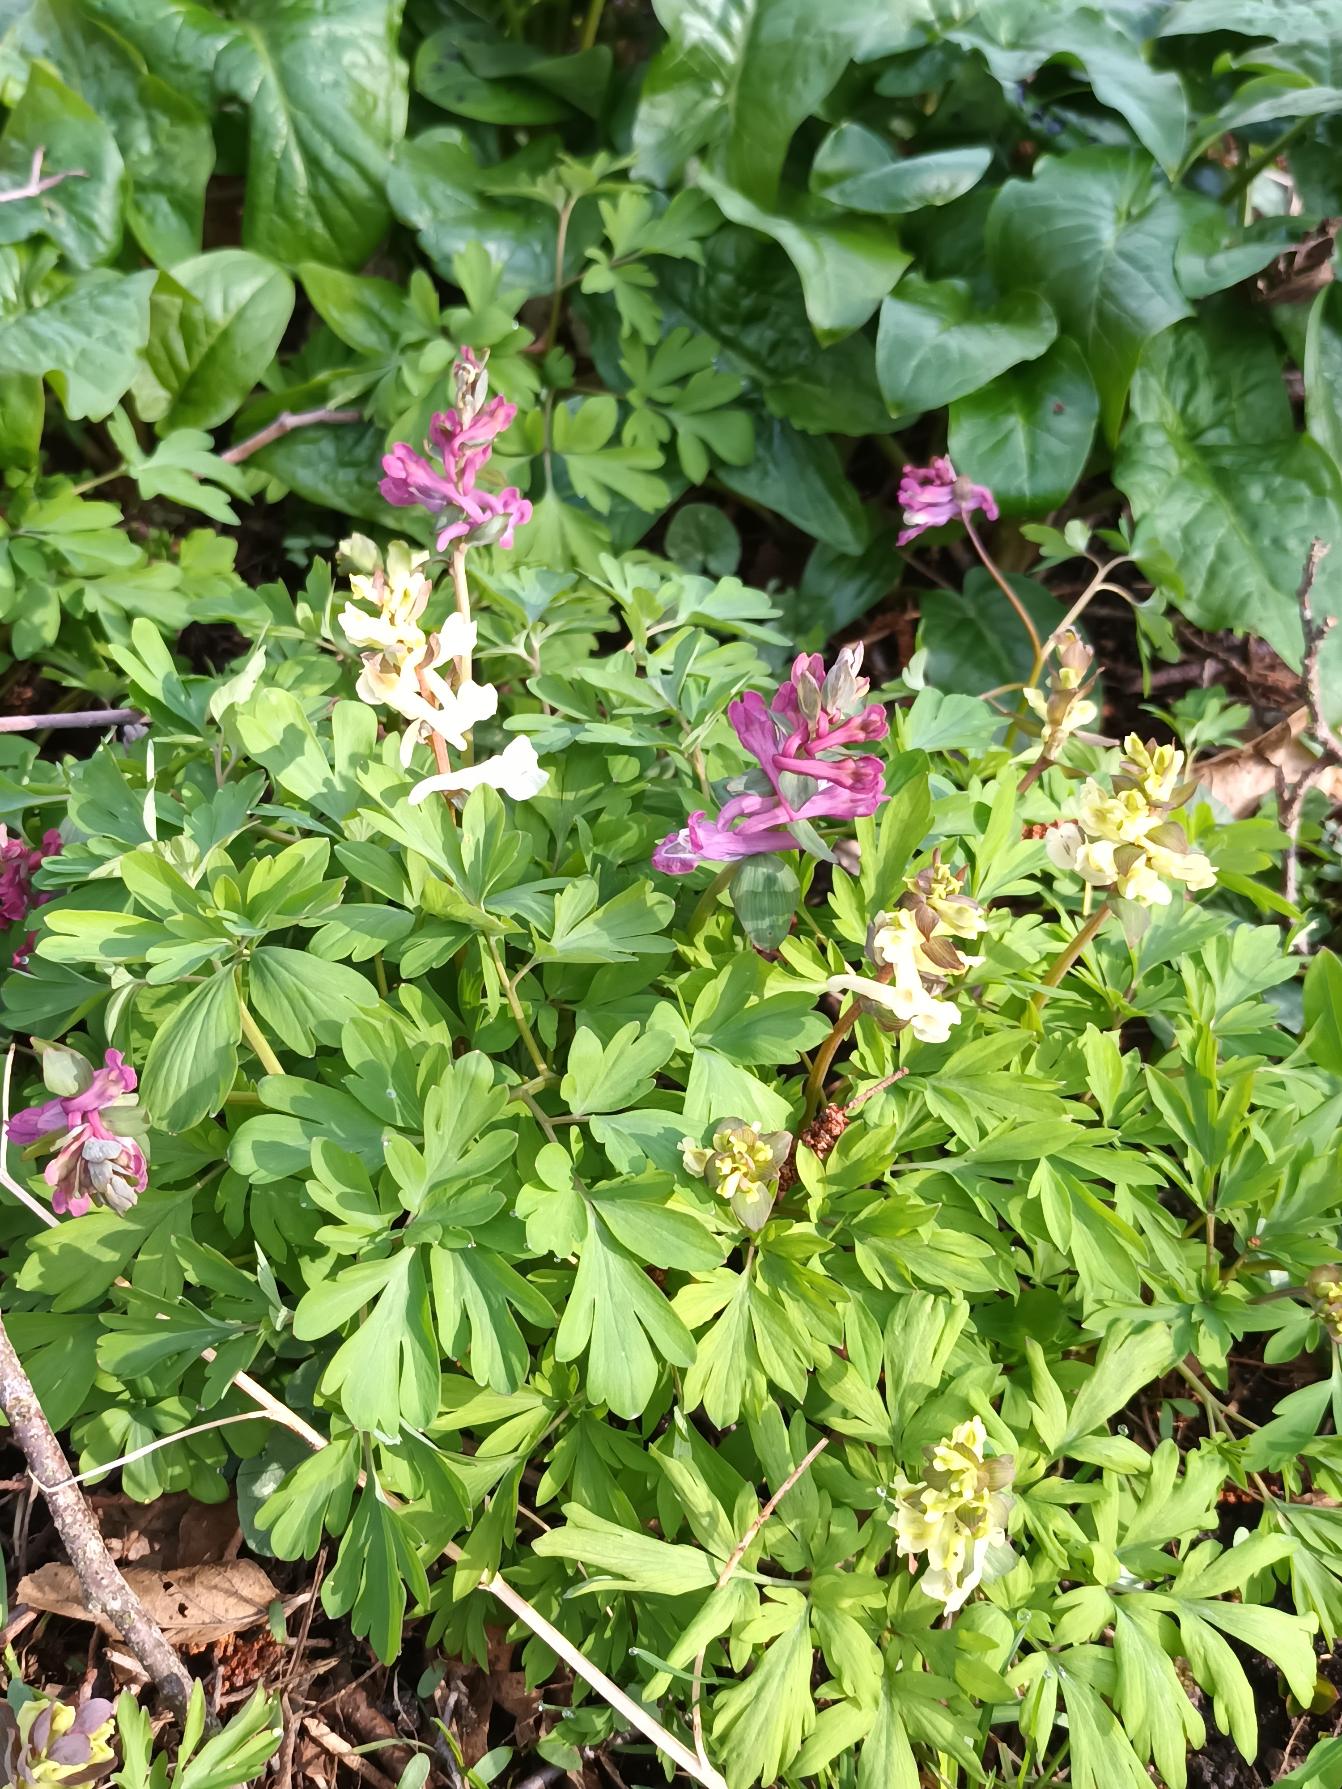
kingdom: Plantae
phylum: Tracheophyta
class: Magnoliopsida
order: Ranunculales
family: Papaveraceae
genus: Corydalis
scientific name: Corydalis cava
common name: Hulrodet lærkespore
